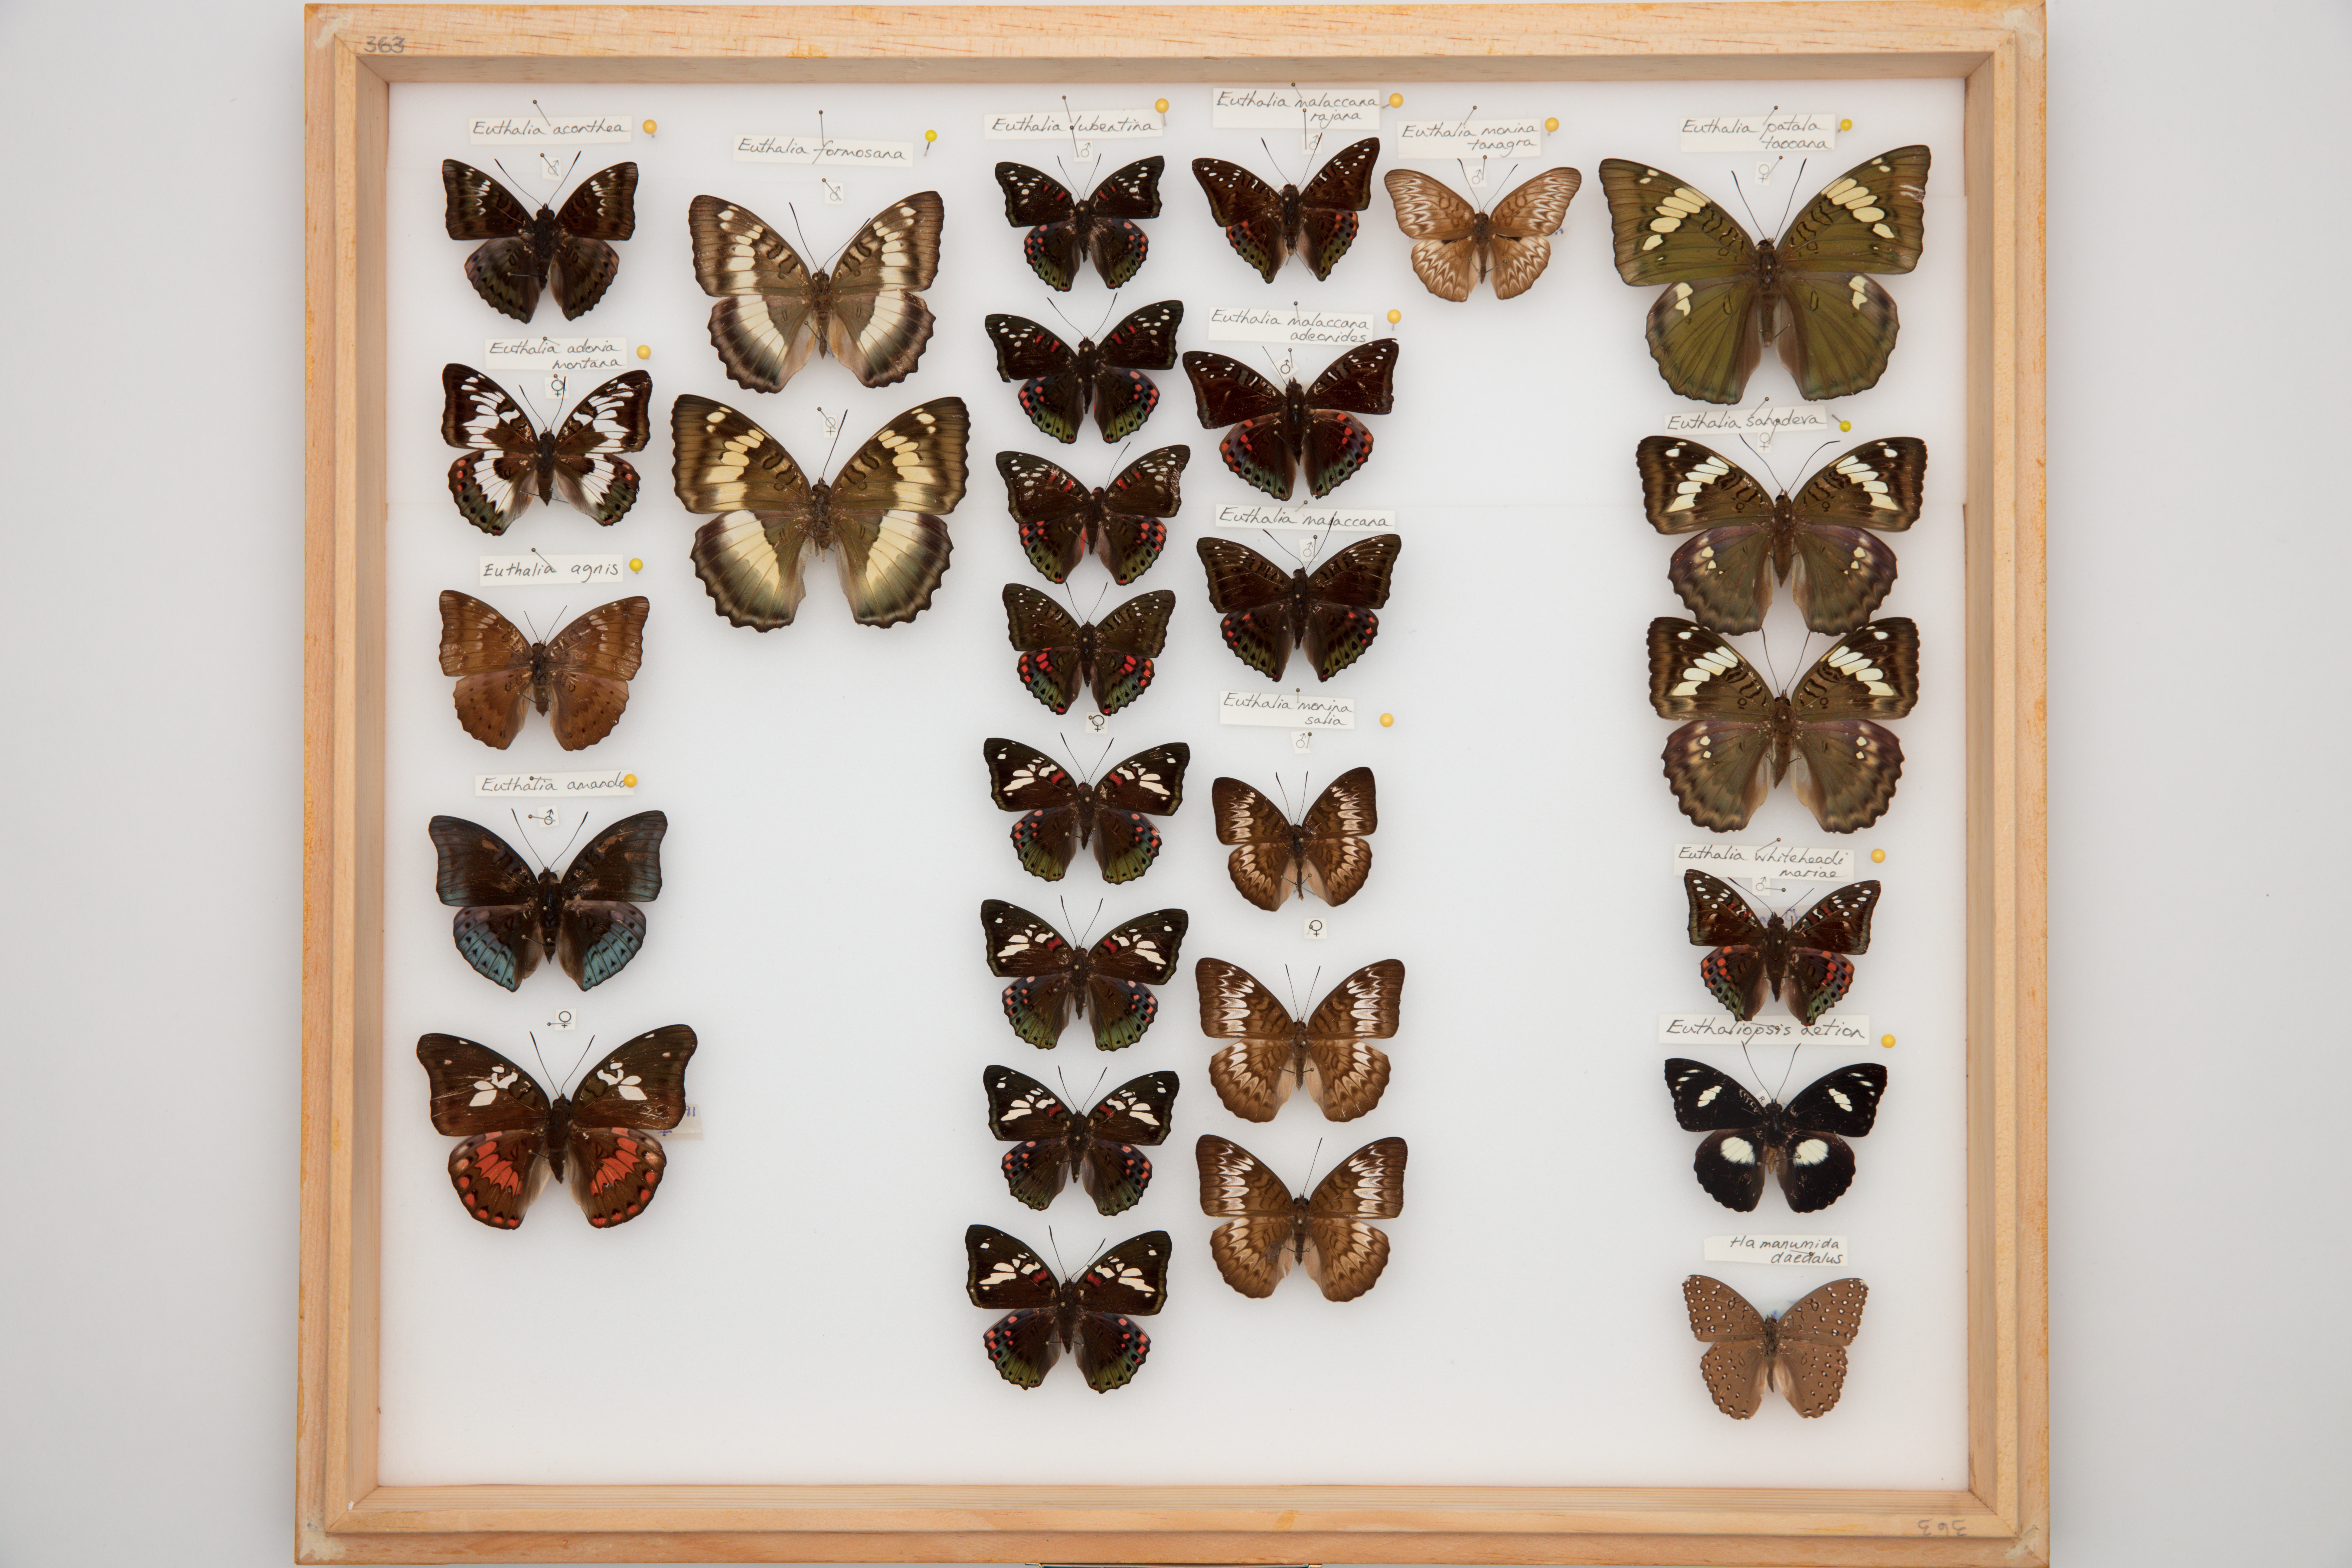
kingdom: Animalia
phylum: Arthropoda
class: Insecta
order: Lepidoptera
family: Nymphalidae
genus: Euthalia
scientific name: Euthalia lubentina
